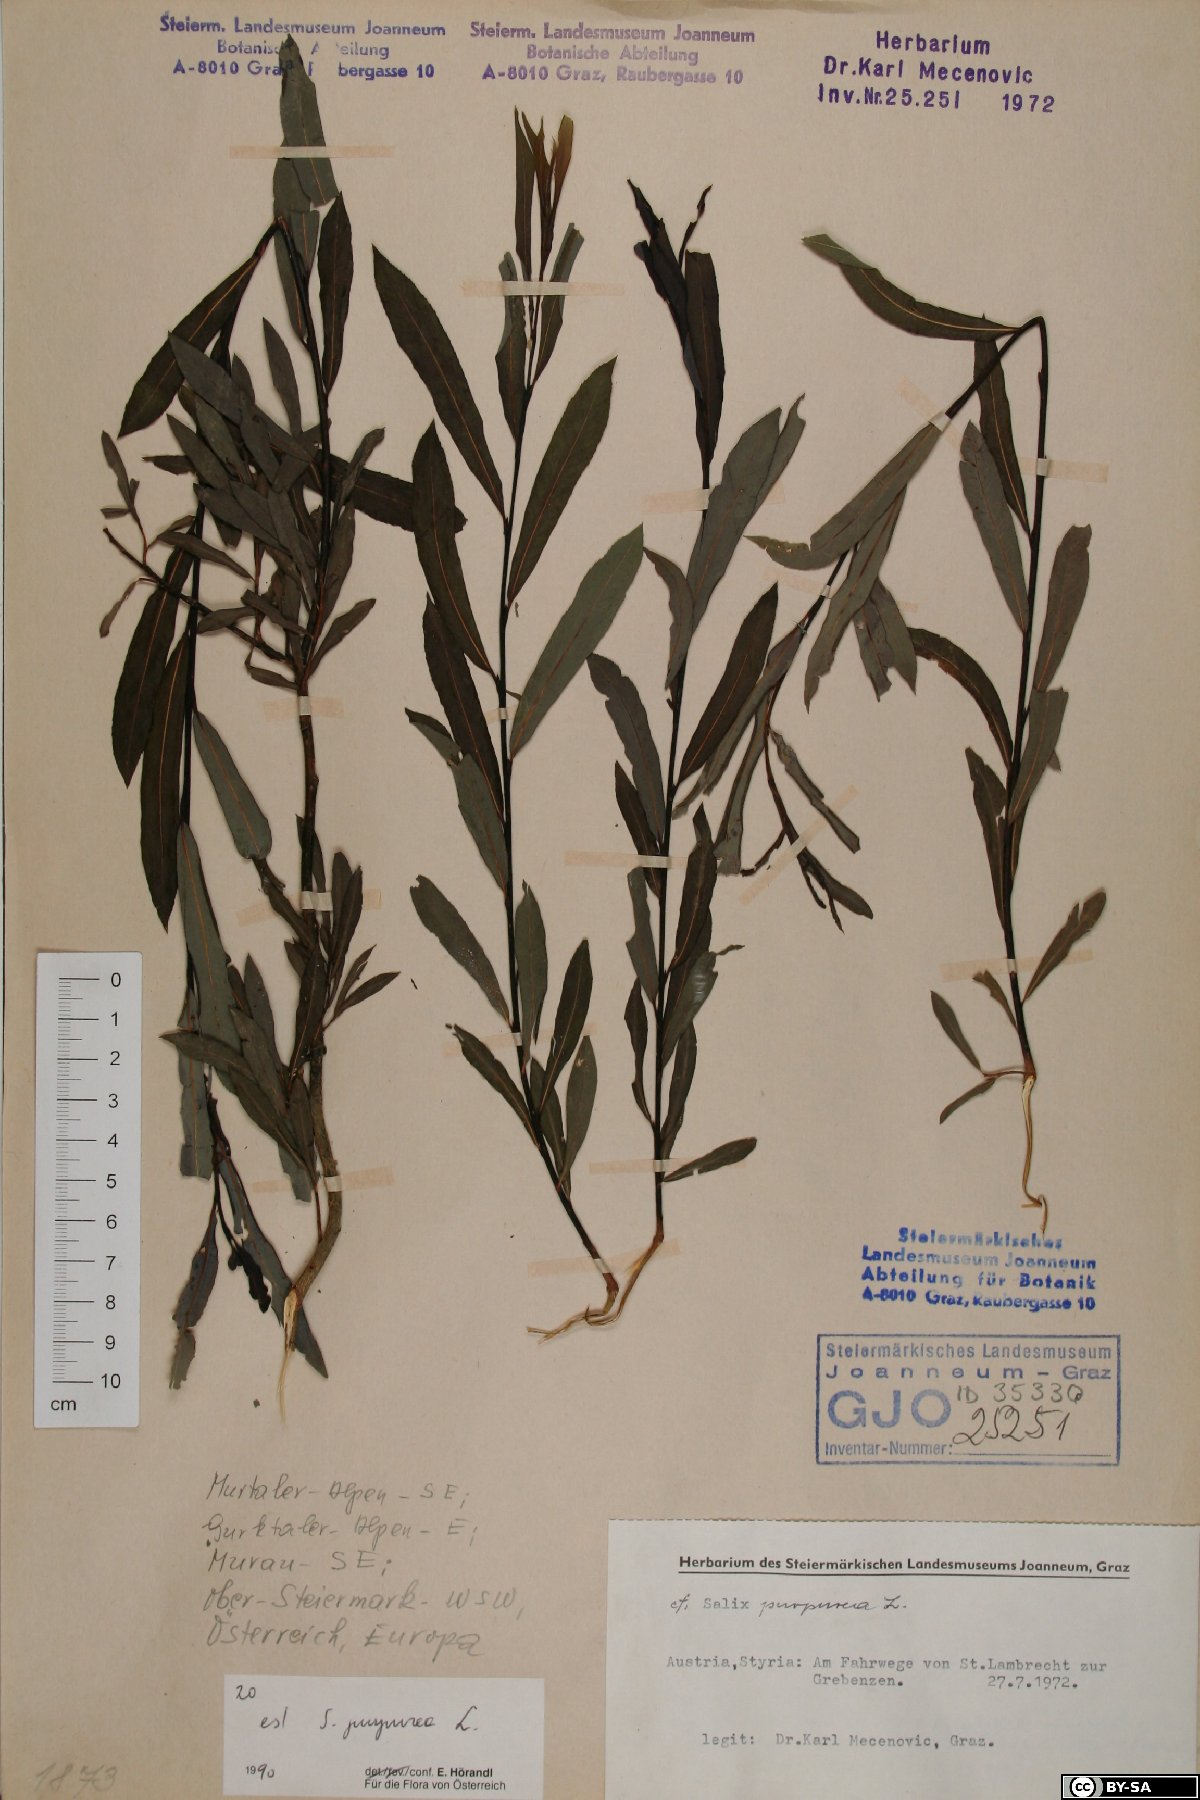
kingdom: Plantae
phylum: Tracheophyta
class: Magnoliopsida
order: Malpighiales
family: Salicaceae
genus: Salix
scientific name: Salix purpurea
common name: Purple willow
